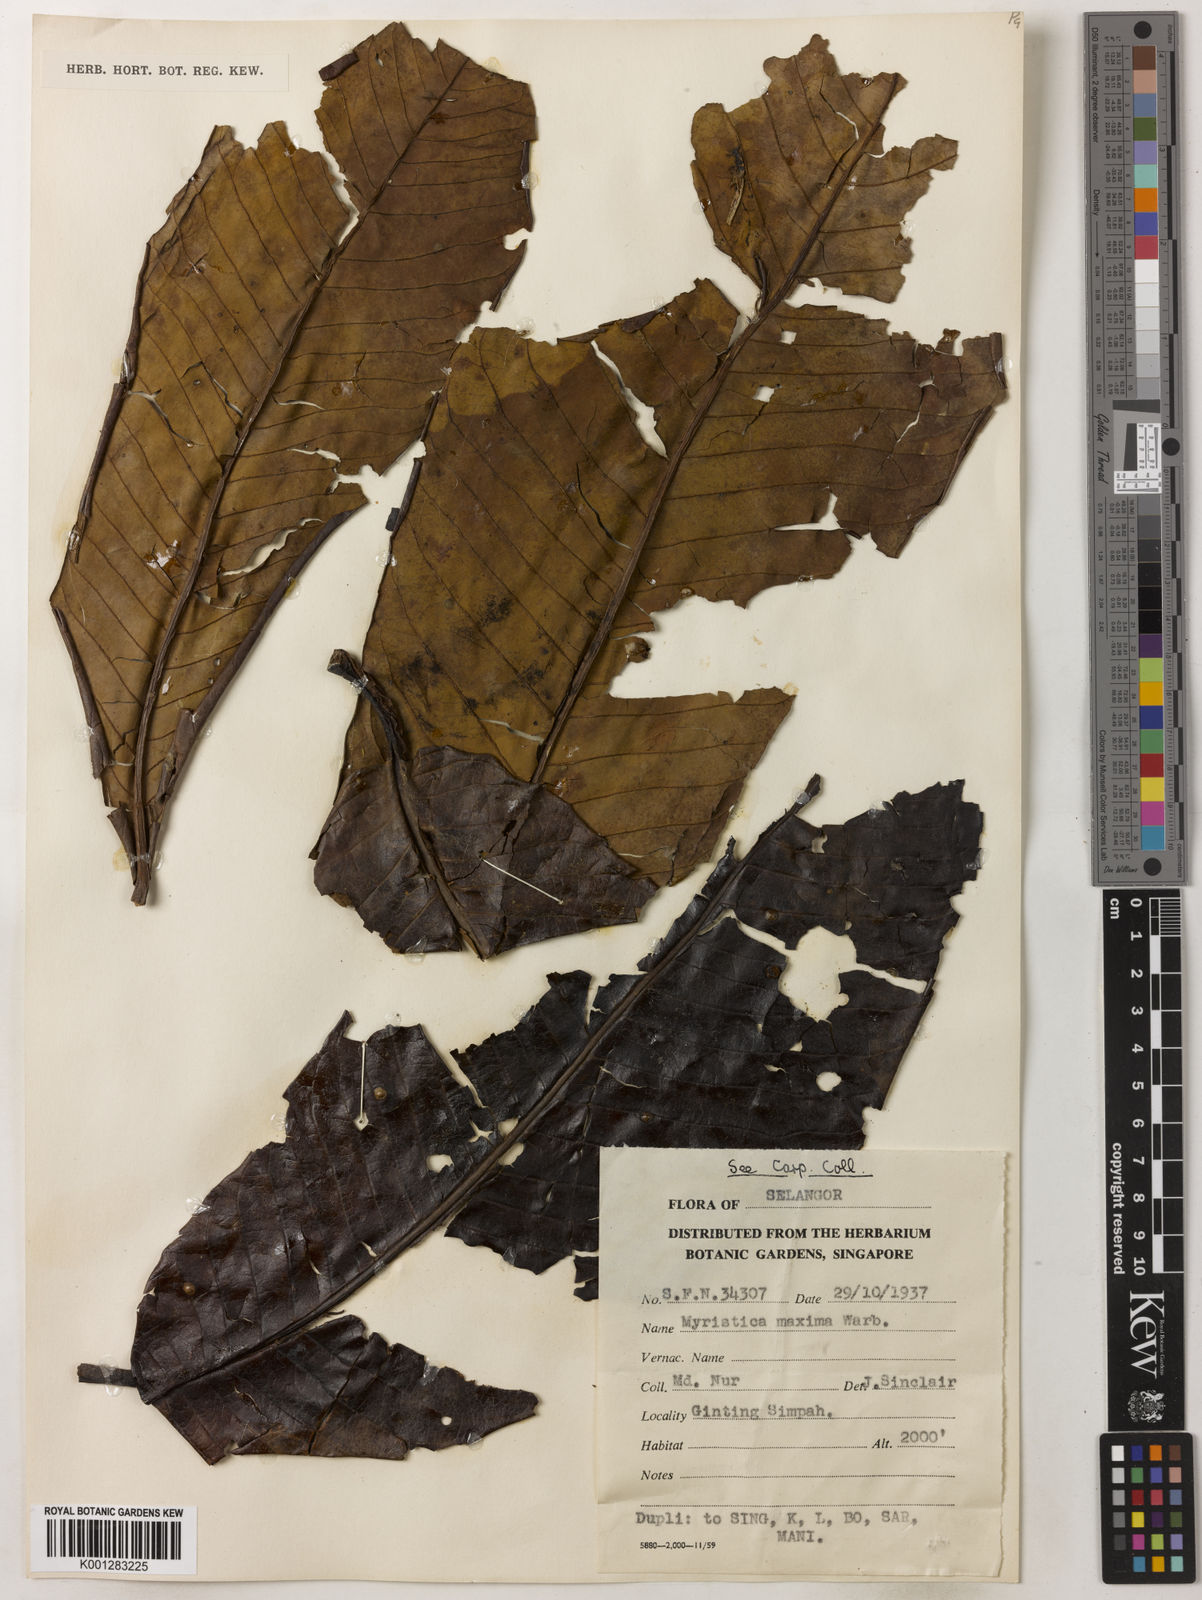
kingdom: Plantae
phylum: Tracheophyta
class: Magnoliopsida
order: Magnoliales
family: Myristicaceae
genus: Myristica
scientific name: Myristica maxima
